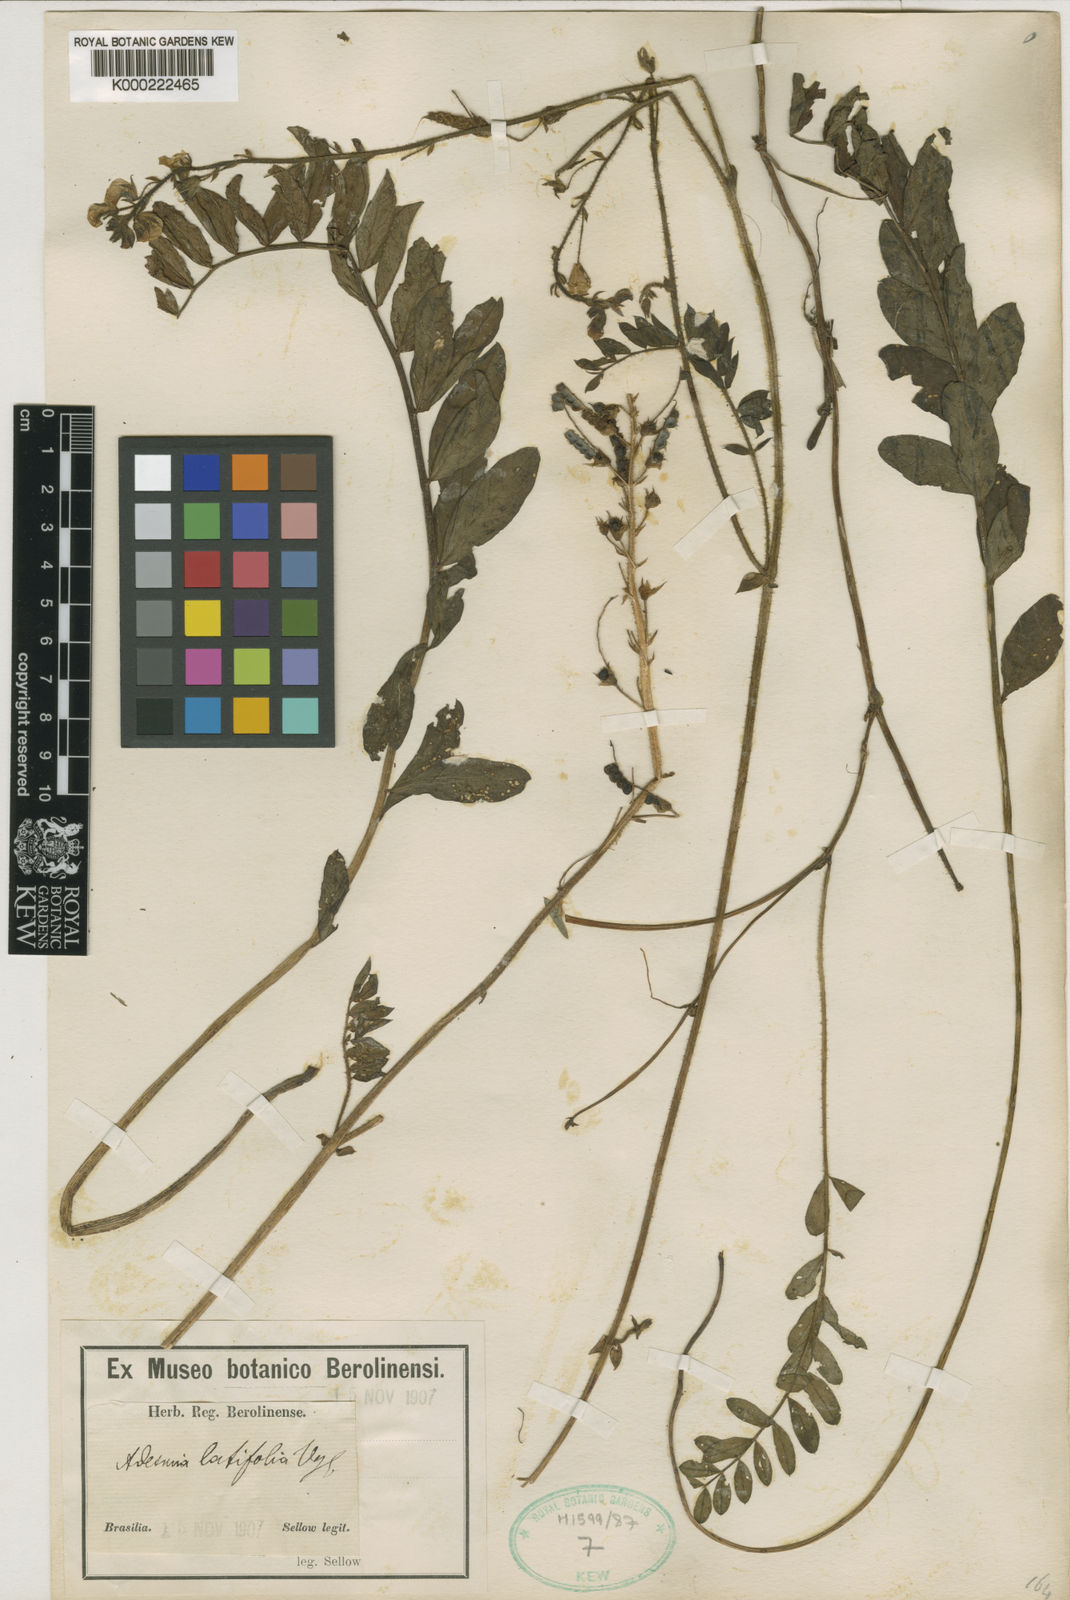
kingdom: Plantae
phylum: Tracheophyta
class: Magnoliopsida
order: Fabales
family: Fabaceae
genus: Adesmia
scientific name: Adesmia latifolia
